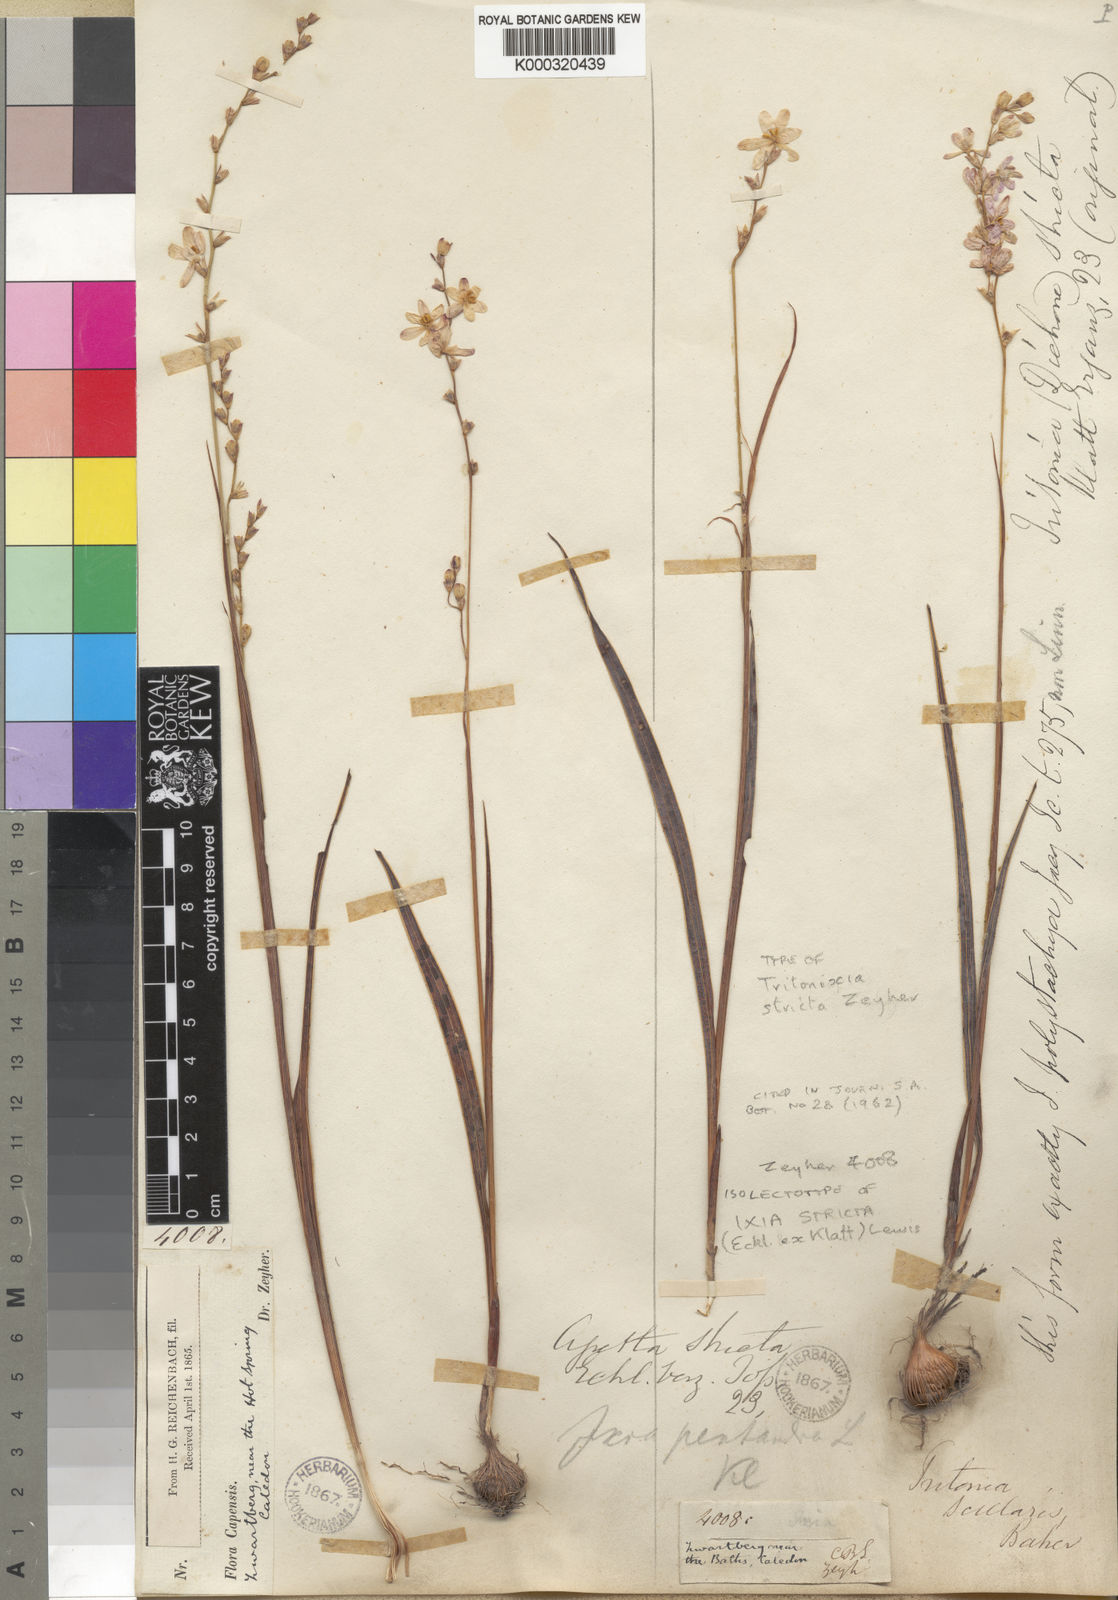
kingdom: Plantae
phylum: Tracheophyta
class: Liliopsida
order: Asparagales
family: Iridaceae
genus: Ixia
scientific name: Ixia stricta
